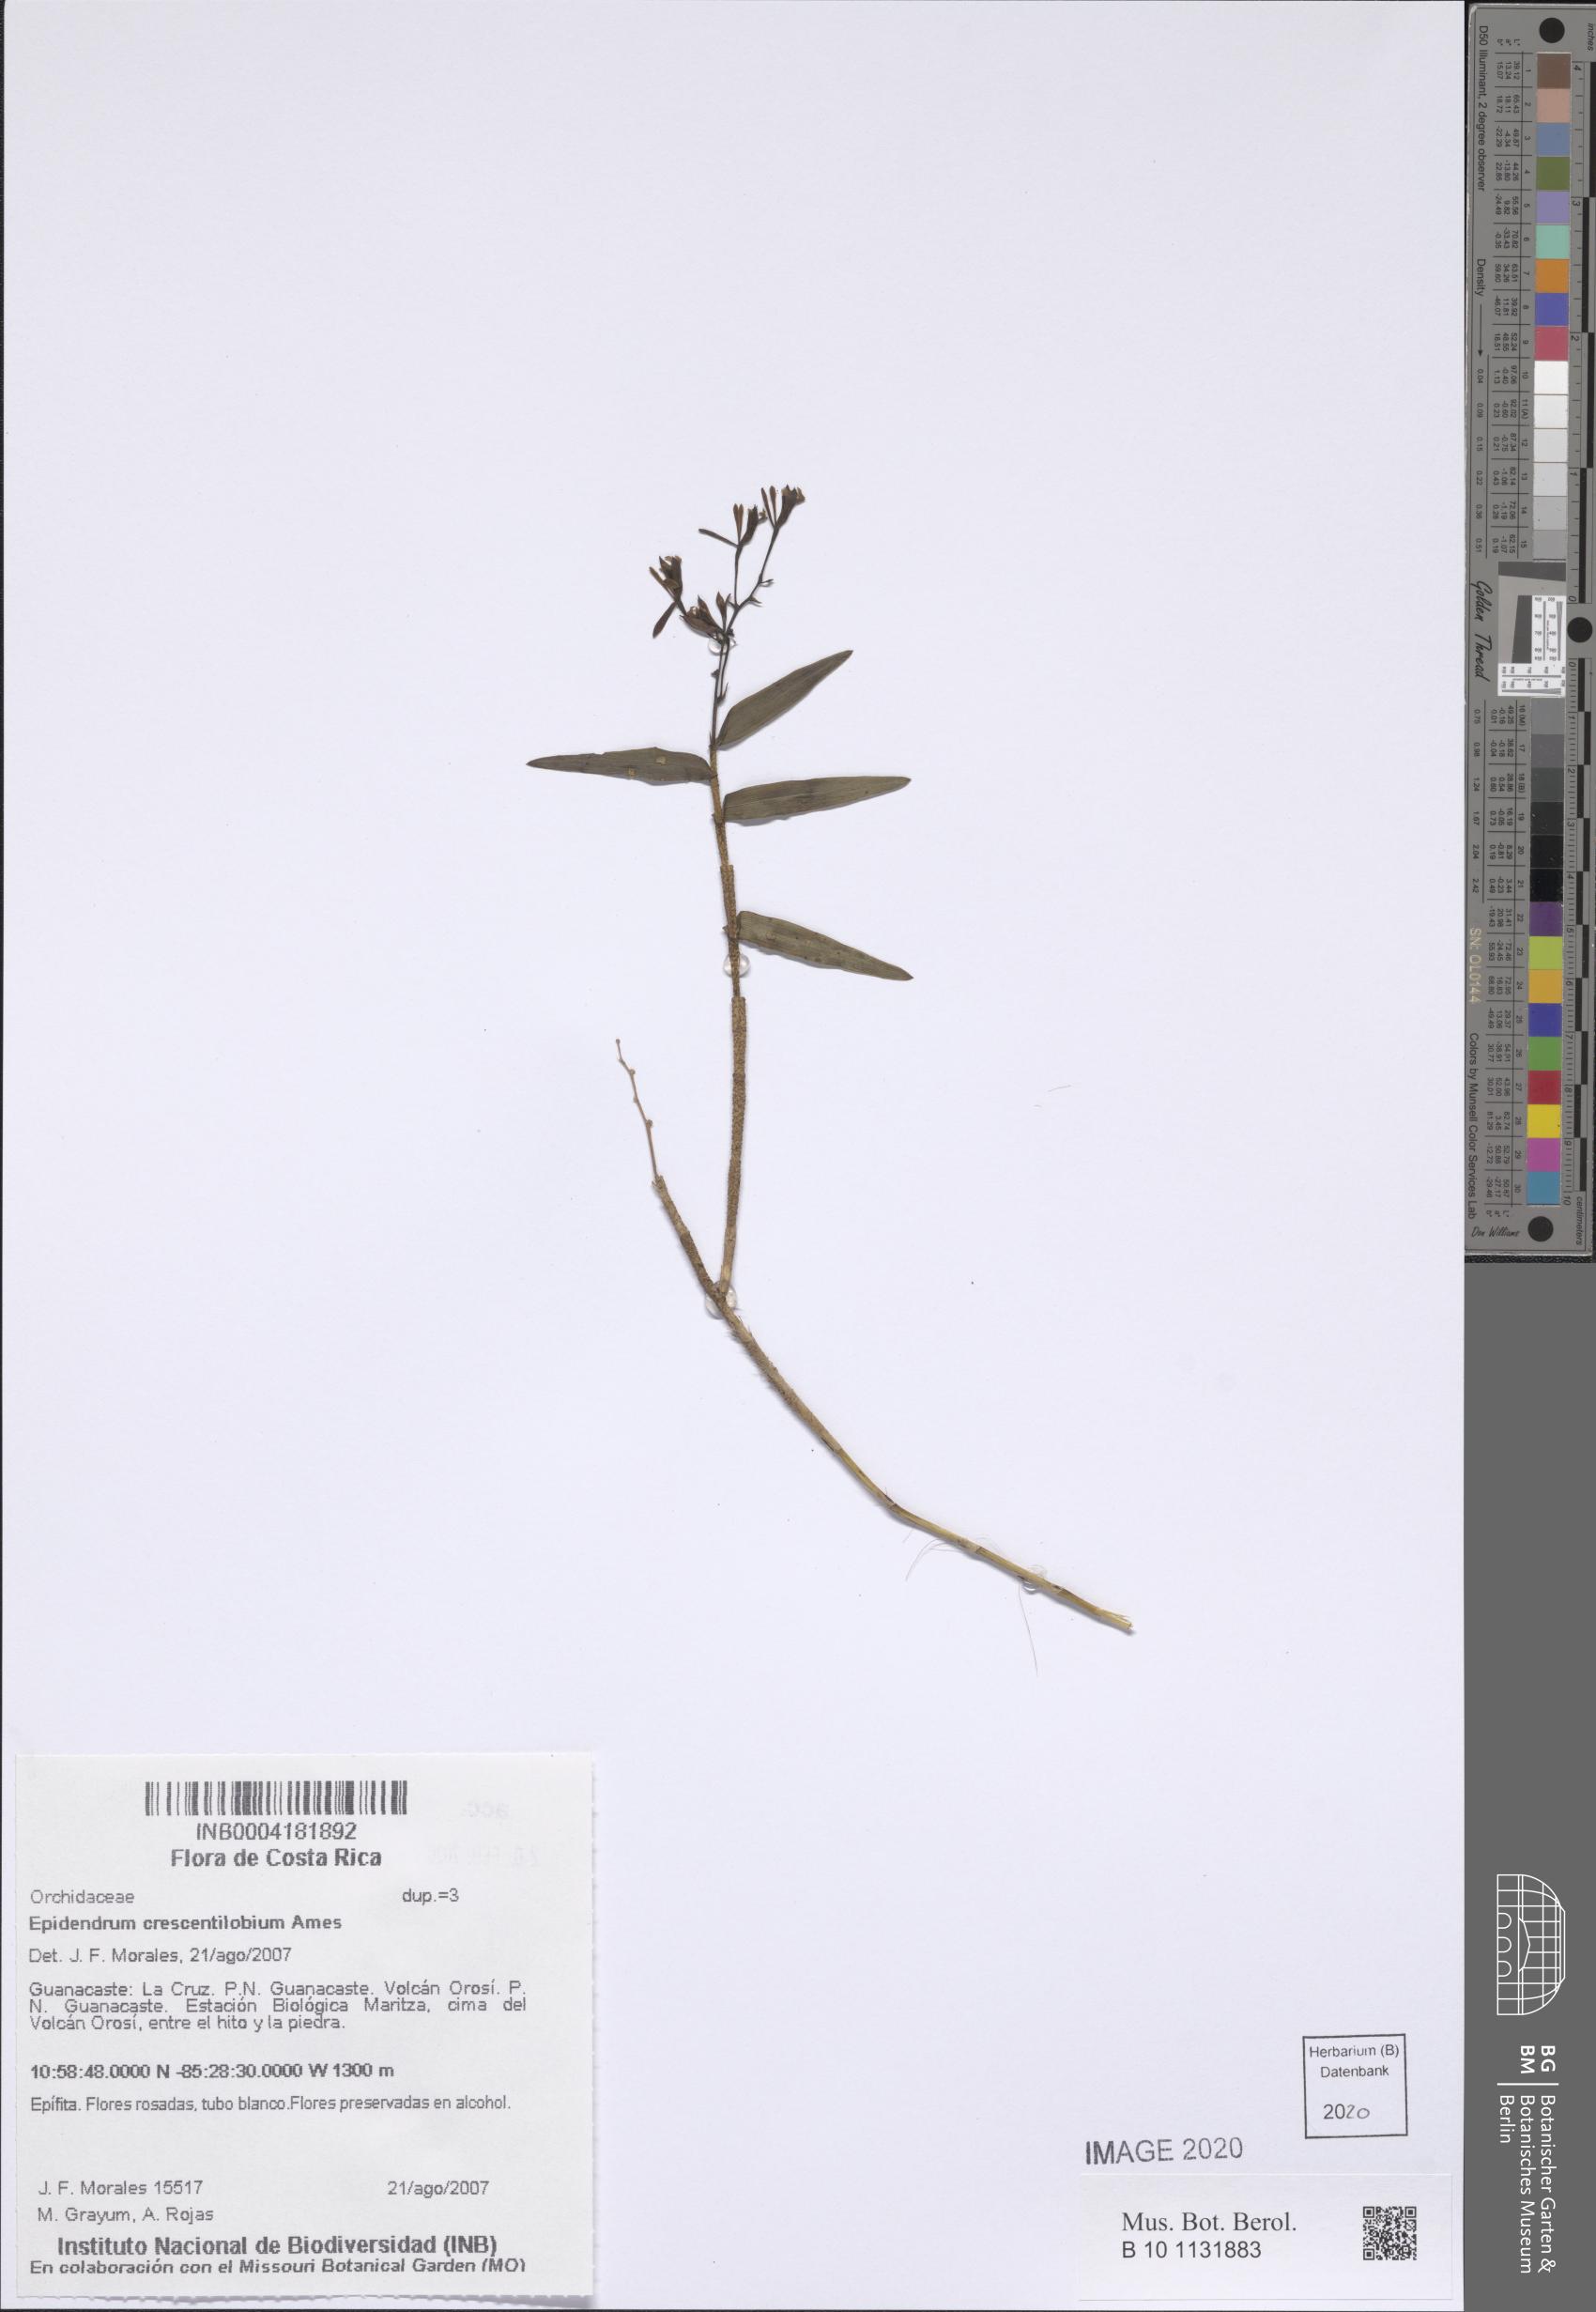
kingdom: Plantae
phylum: Tracheophyta
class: Liliopsida
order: Asparagales
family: Orchidaceae
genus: Epidendrum
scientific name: Epidendrum crescentilobium
